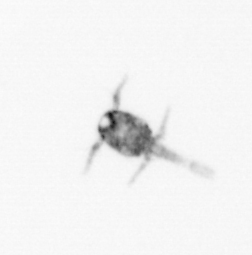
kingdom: Animalia
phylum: Arthropoda
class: Copepoda
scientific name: Copepoda
